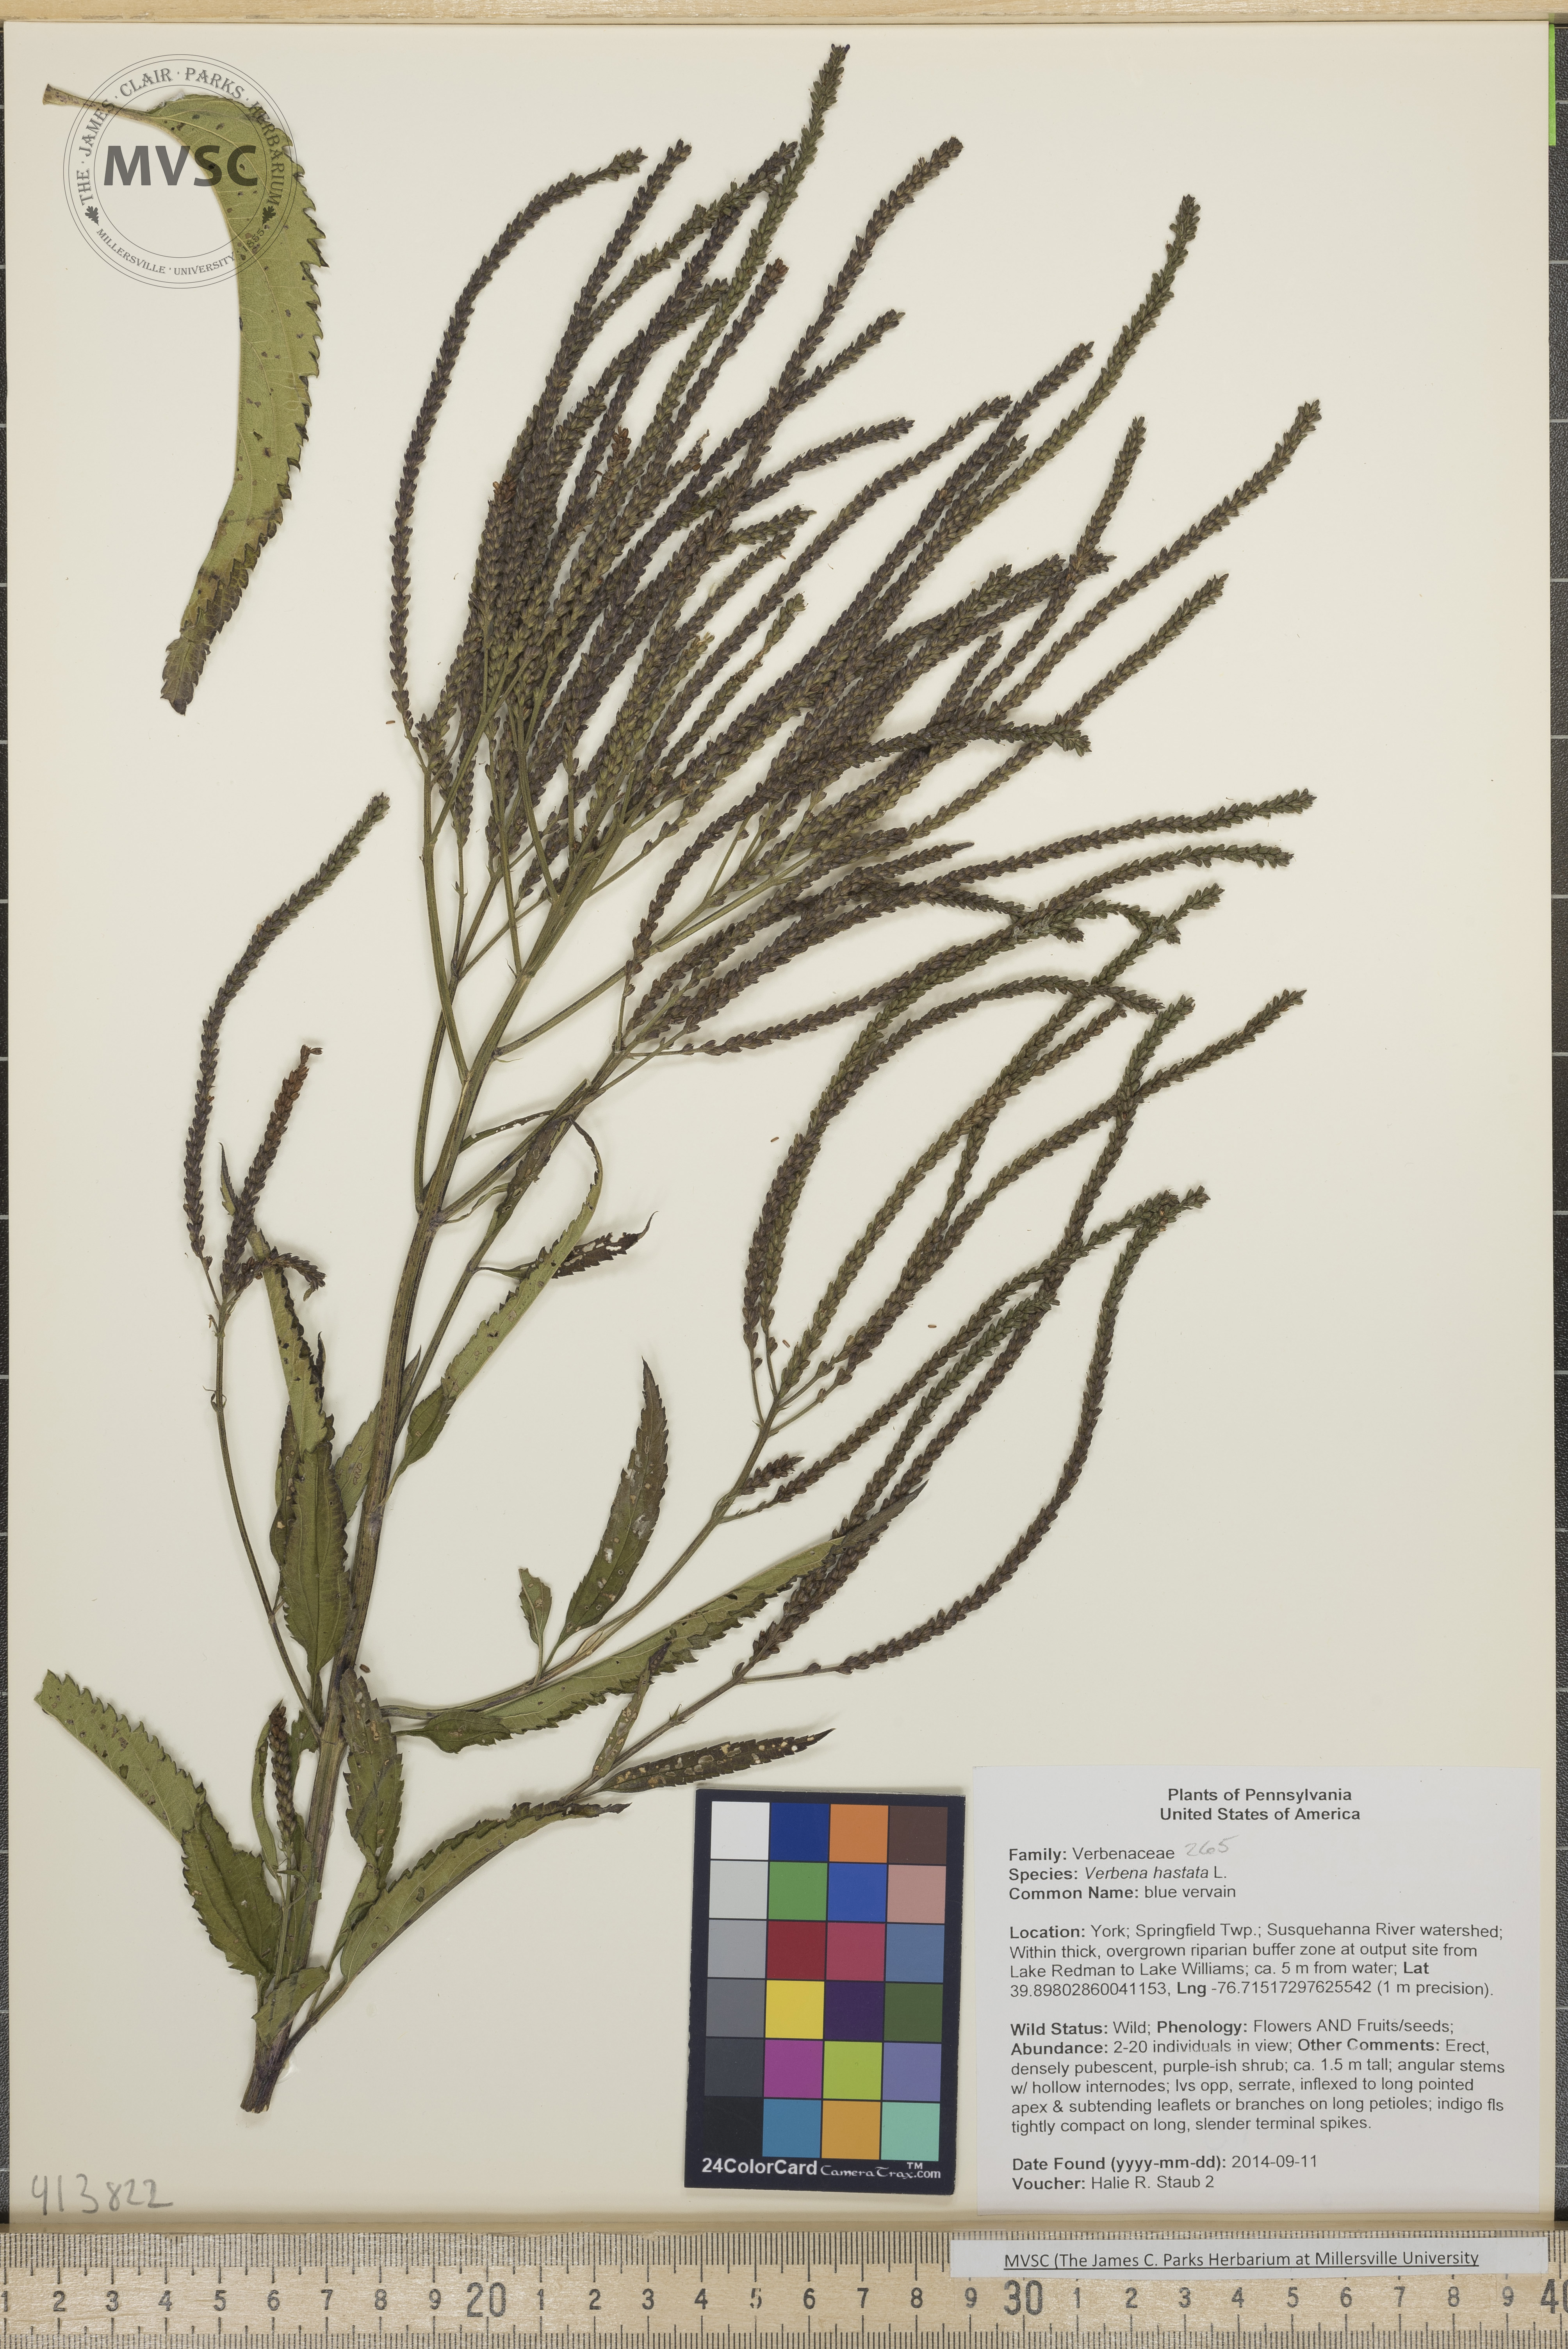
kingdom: Plantae
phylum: Tracheophyta
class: Magnoliopsida
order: Lamiales
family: Verbenaceae
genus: Verbena
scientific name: Verbena hastata
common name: Blue vervain
